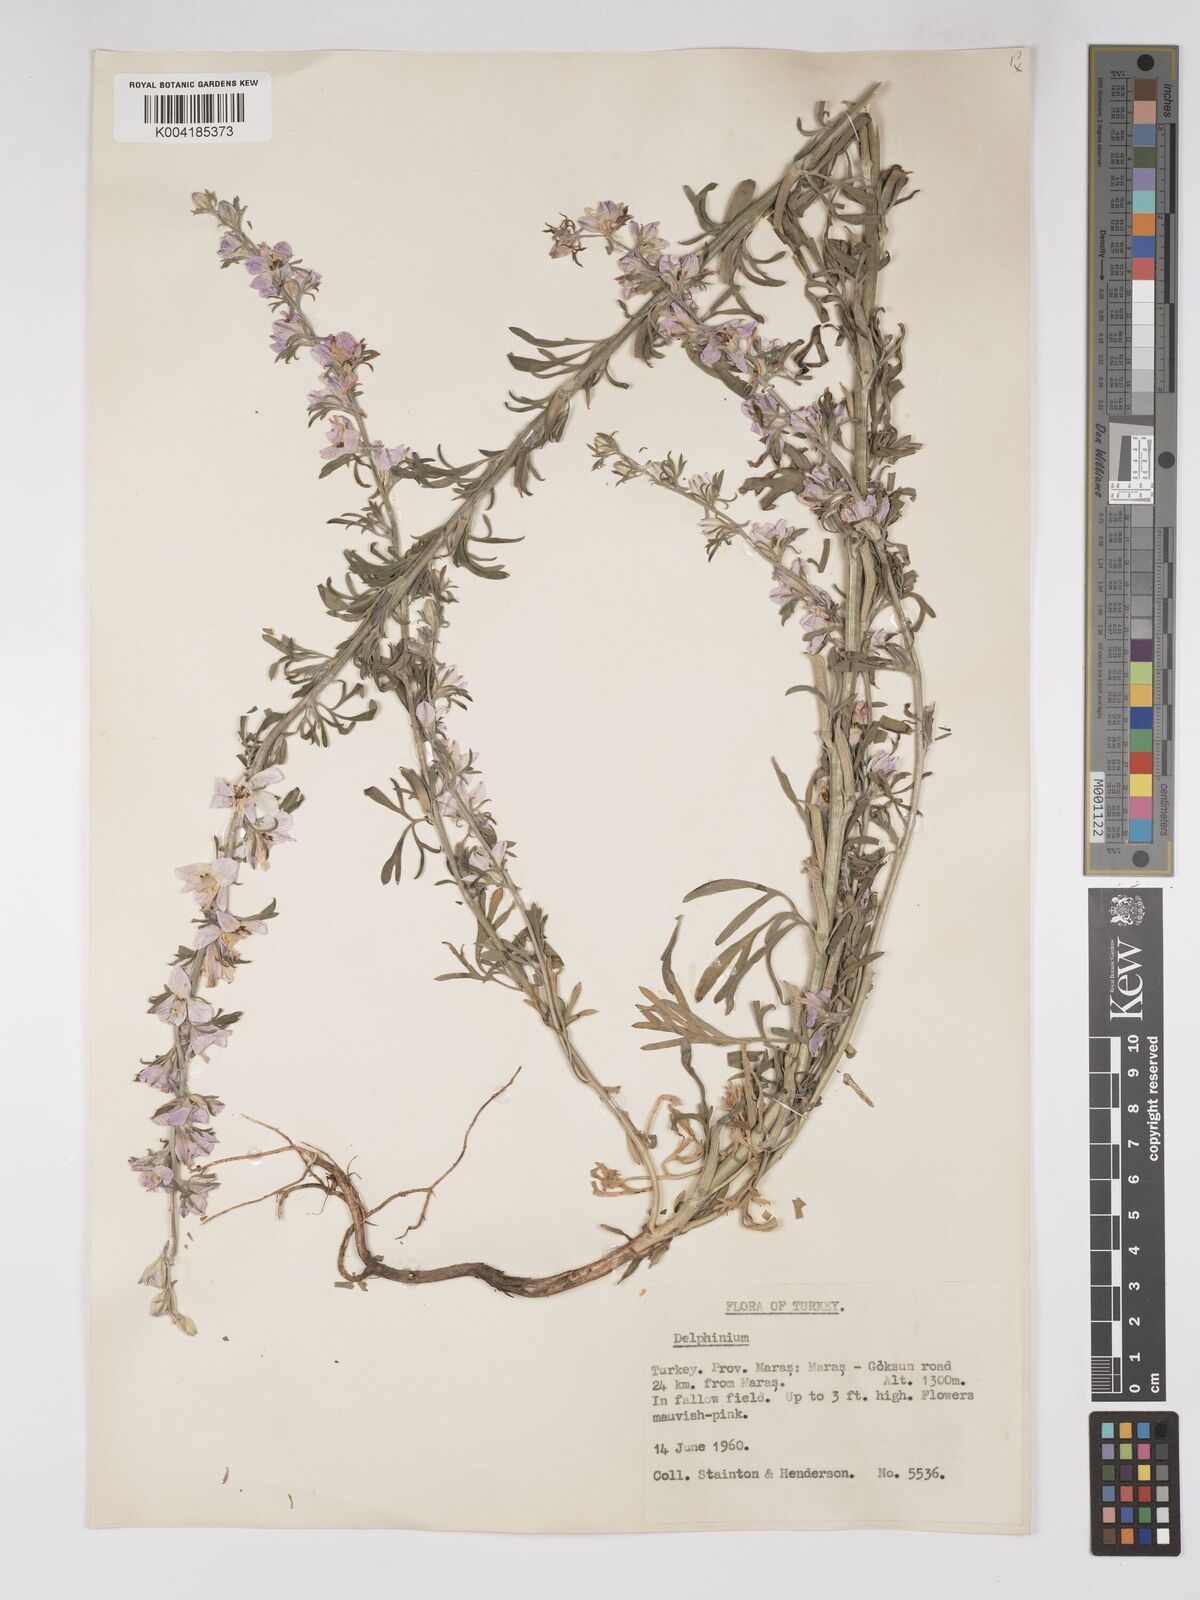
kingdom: Plantae
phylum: Tracheophyta
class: Magnoliopsida
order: Ranunculales
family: Ranunculaceae
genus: Delphinium
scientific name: Delphinium
